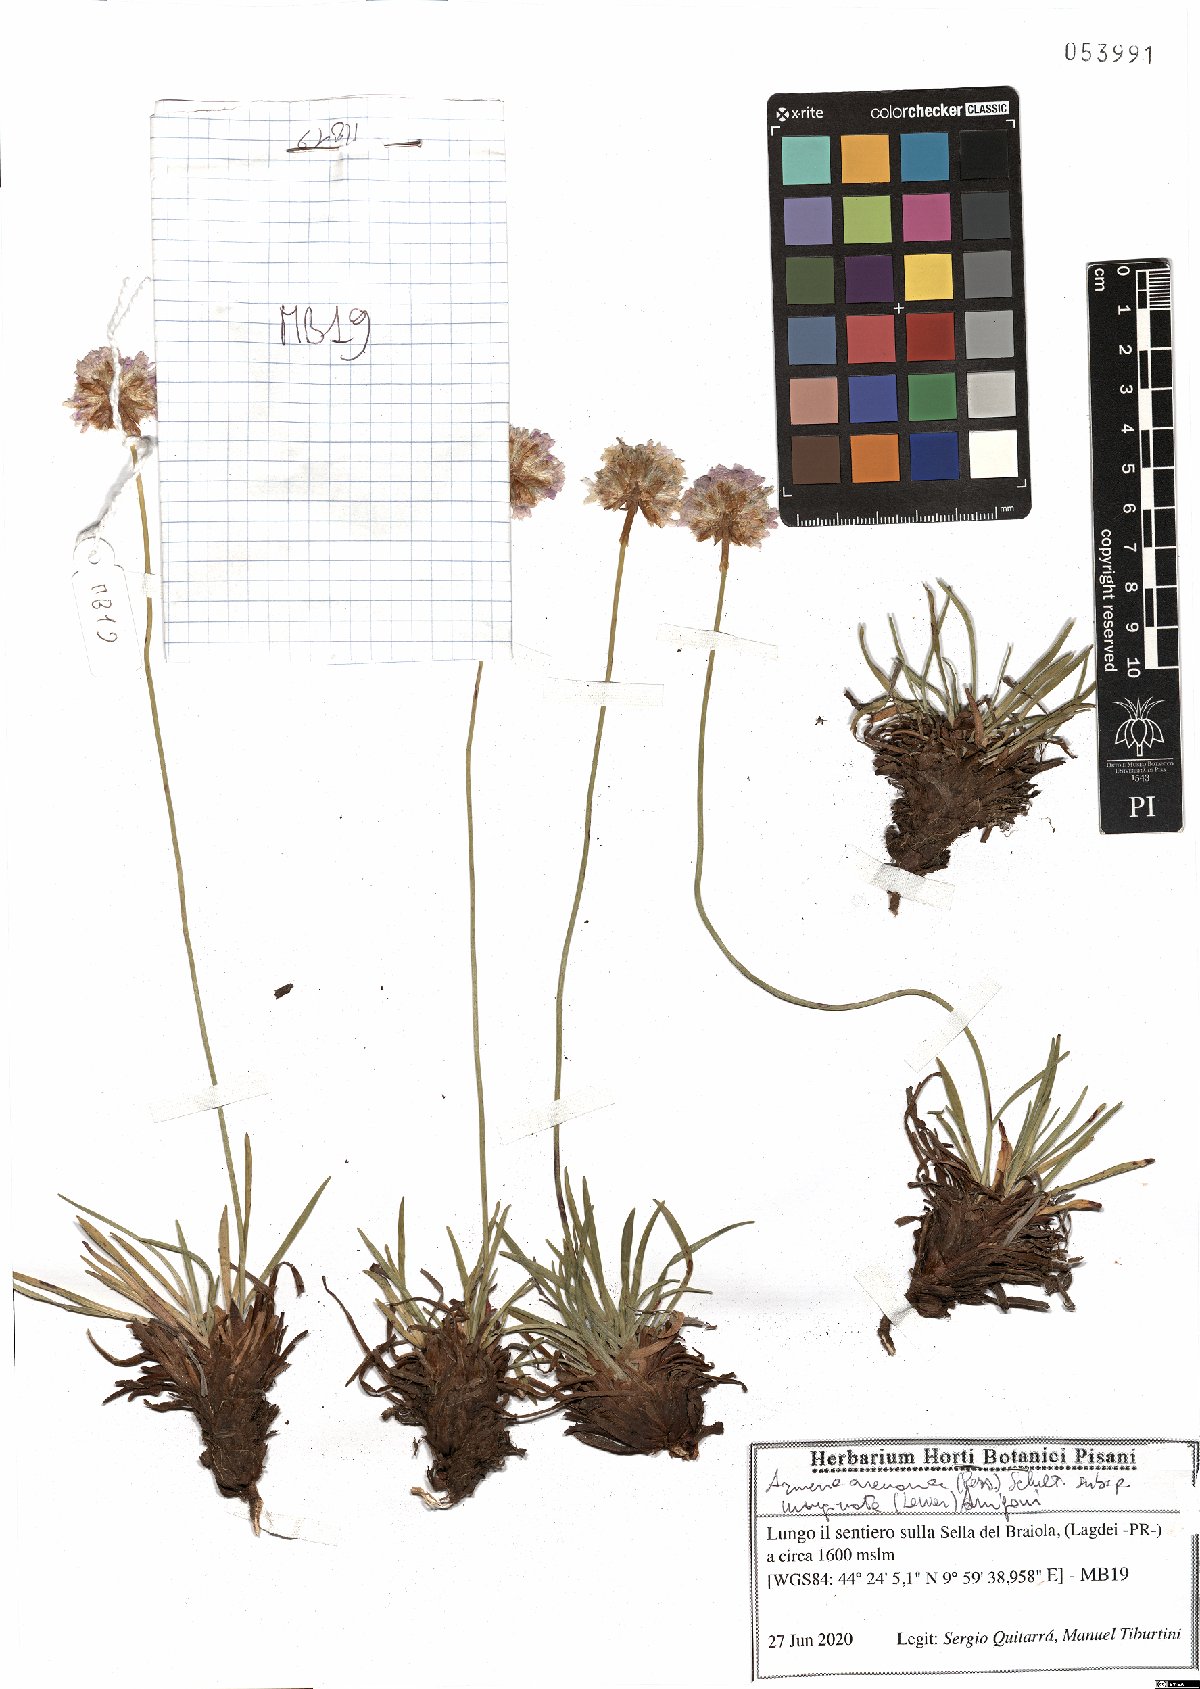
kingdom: Plantae
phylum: Tracheophyta
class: Magnoliopsida
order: Caryophyllales
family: Plumbaginaceae
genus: Armeria
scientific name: Armeria arenaria
